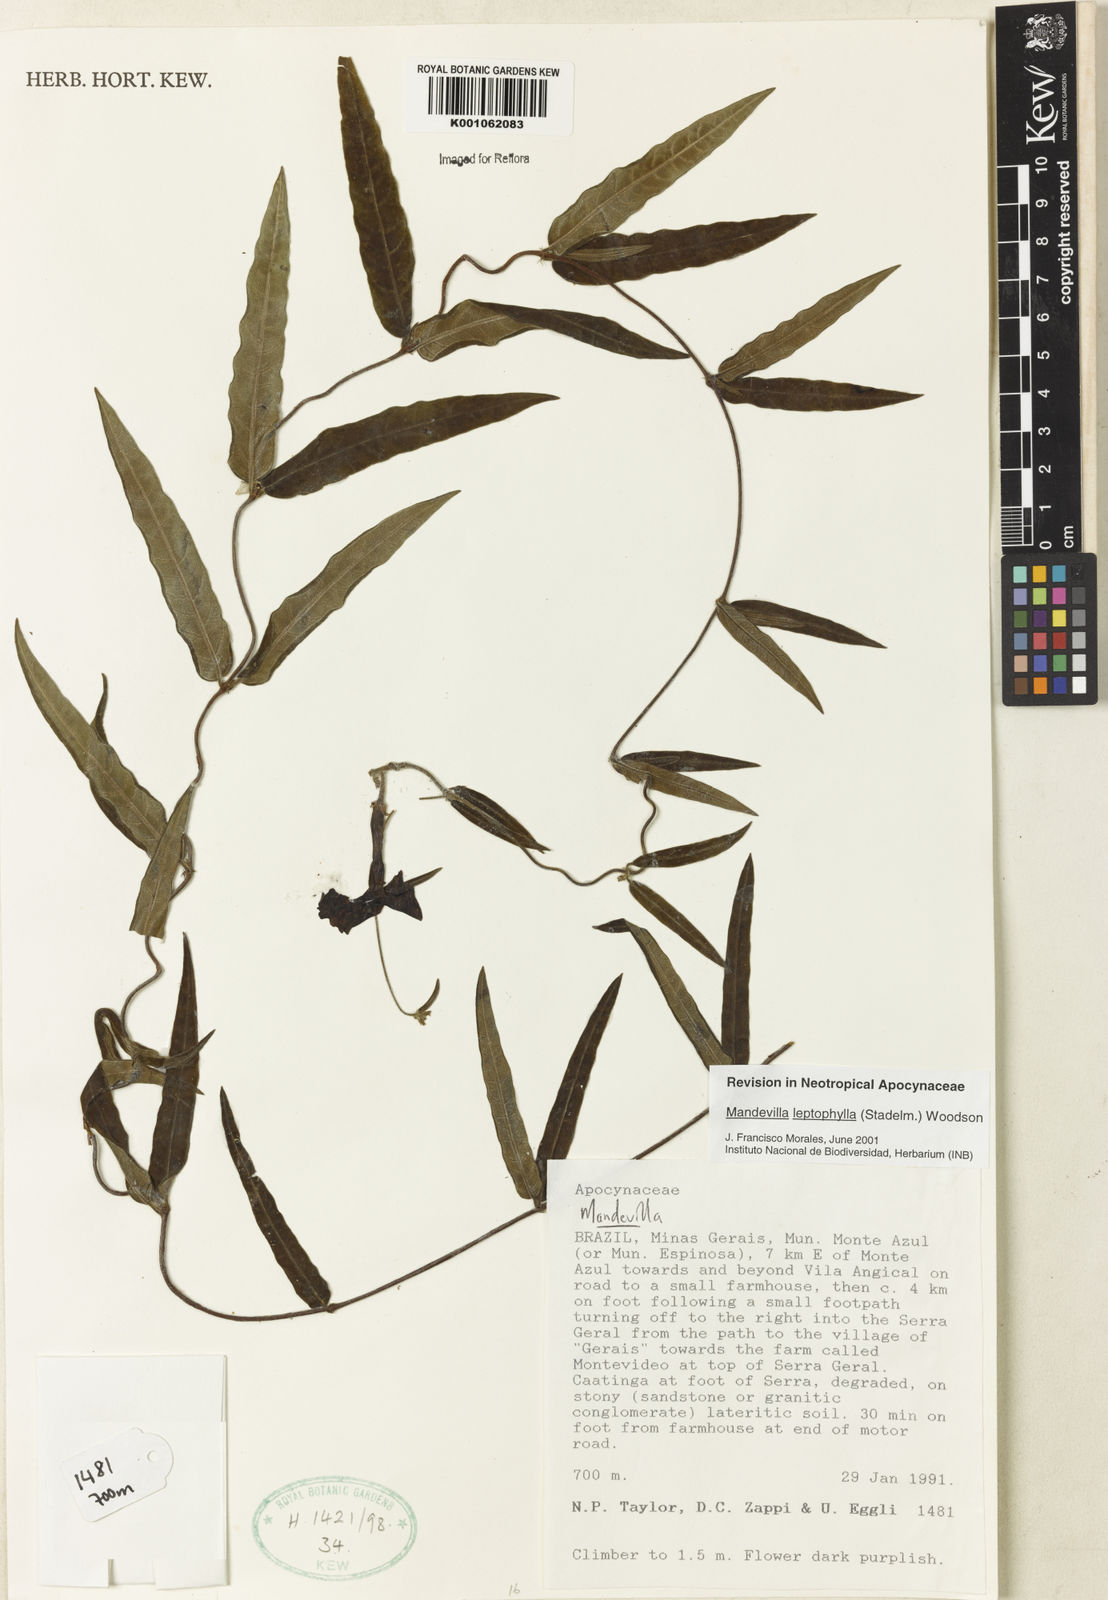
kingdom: Plantae
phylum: Tracheophyta
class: Magnoliopsida
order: Gentianales
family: Apocynaceae
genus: Mandevilla
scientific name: Mandevilla leptophylla
